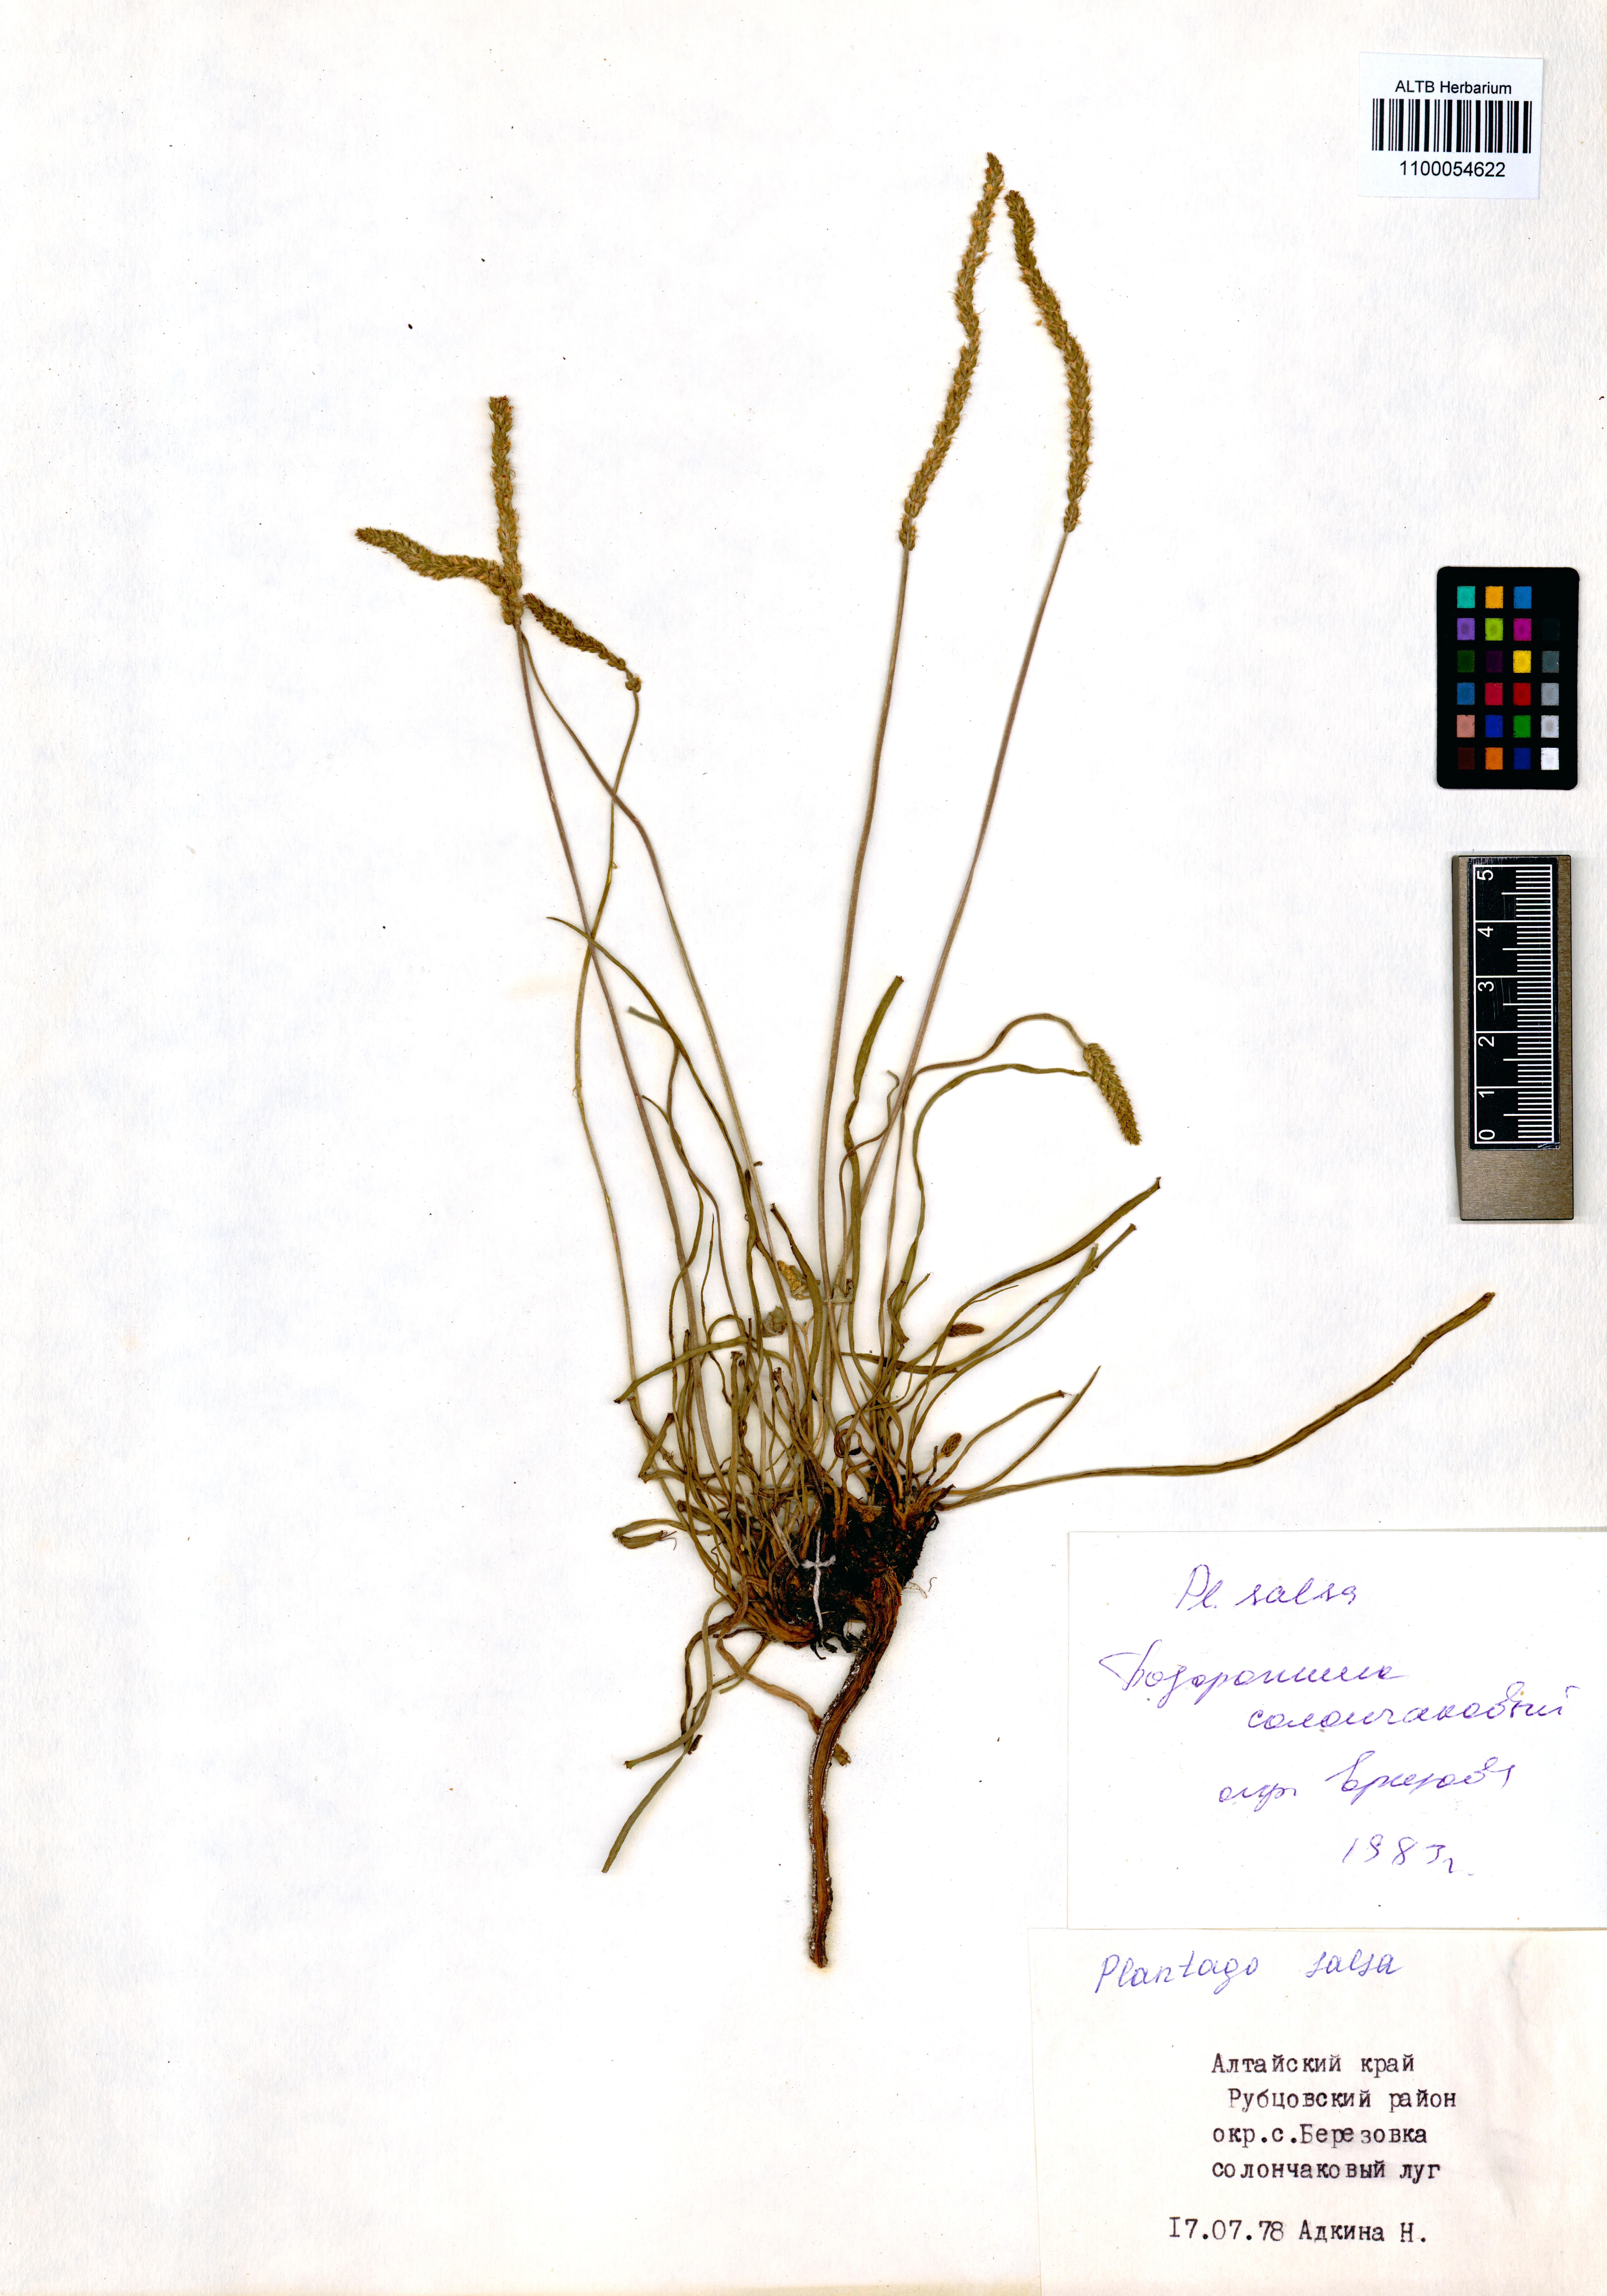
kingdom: Plantae
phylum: Tracheophyta
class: Magnoliopsida
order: Lamiales
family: Plantaginaceae
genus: Plantago
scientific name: Plantago salsa
